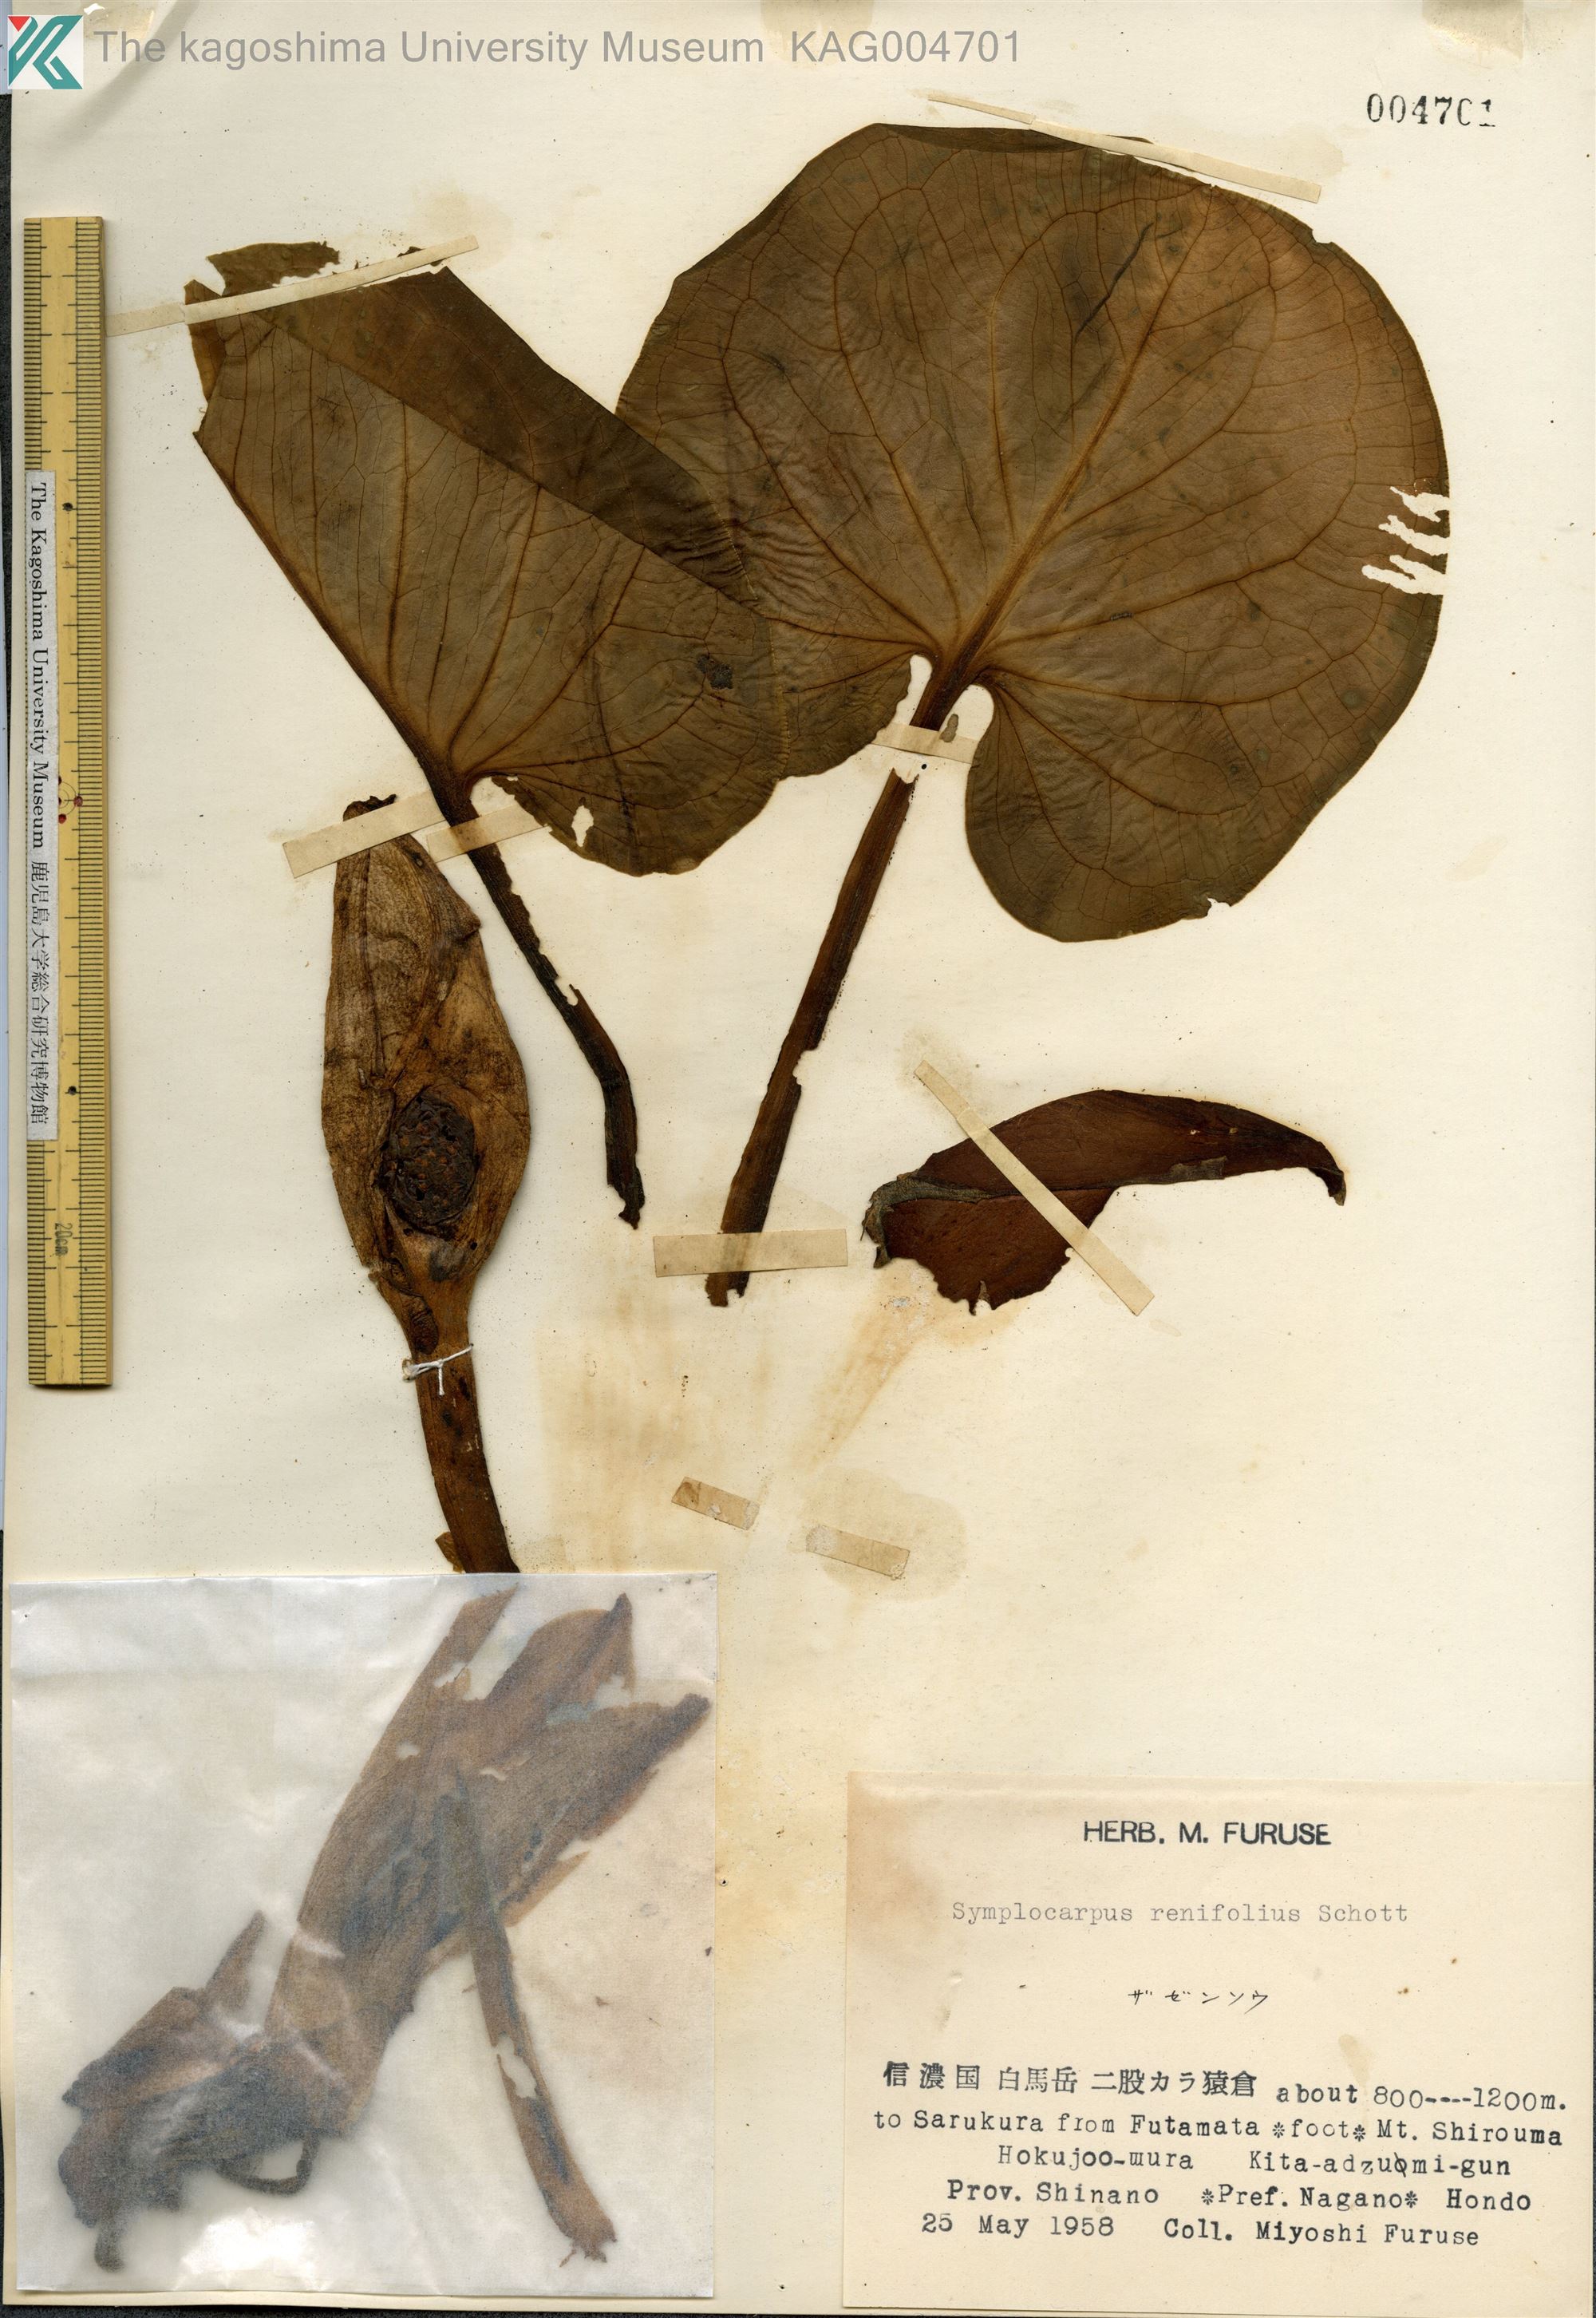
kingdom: Plantae
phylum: Tracheophyta
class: Liliopsida
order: Alismatales
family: Araceae
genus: Symplocarpus
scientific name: Symplocarpus renifolius
